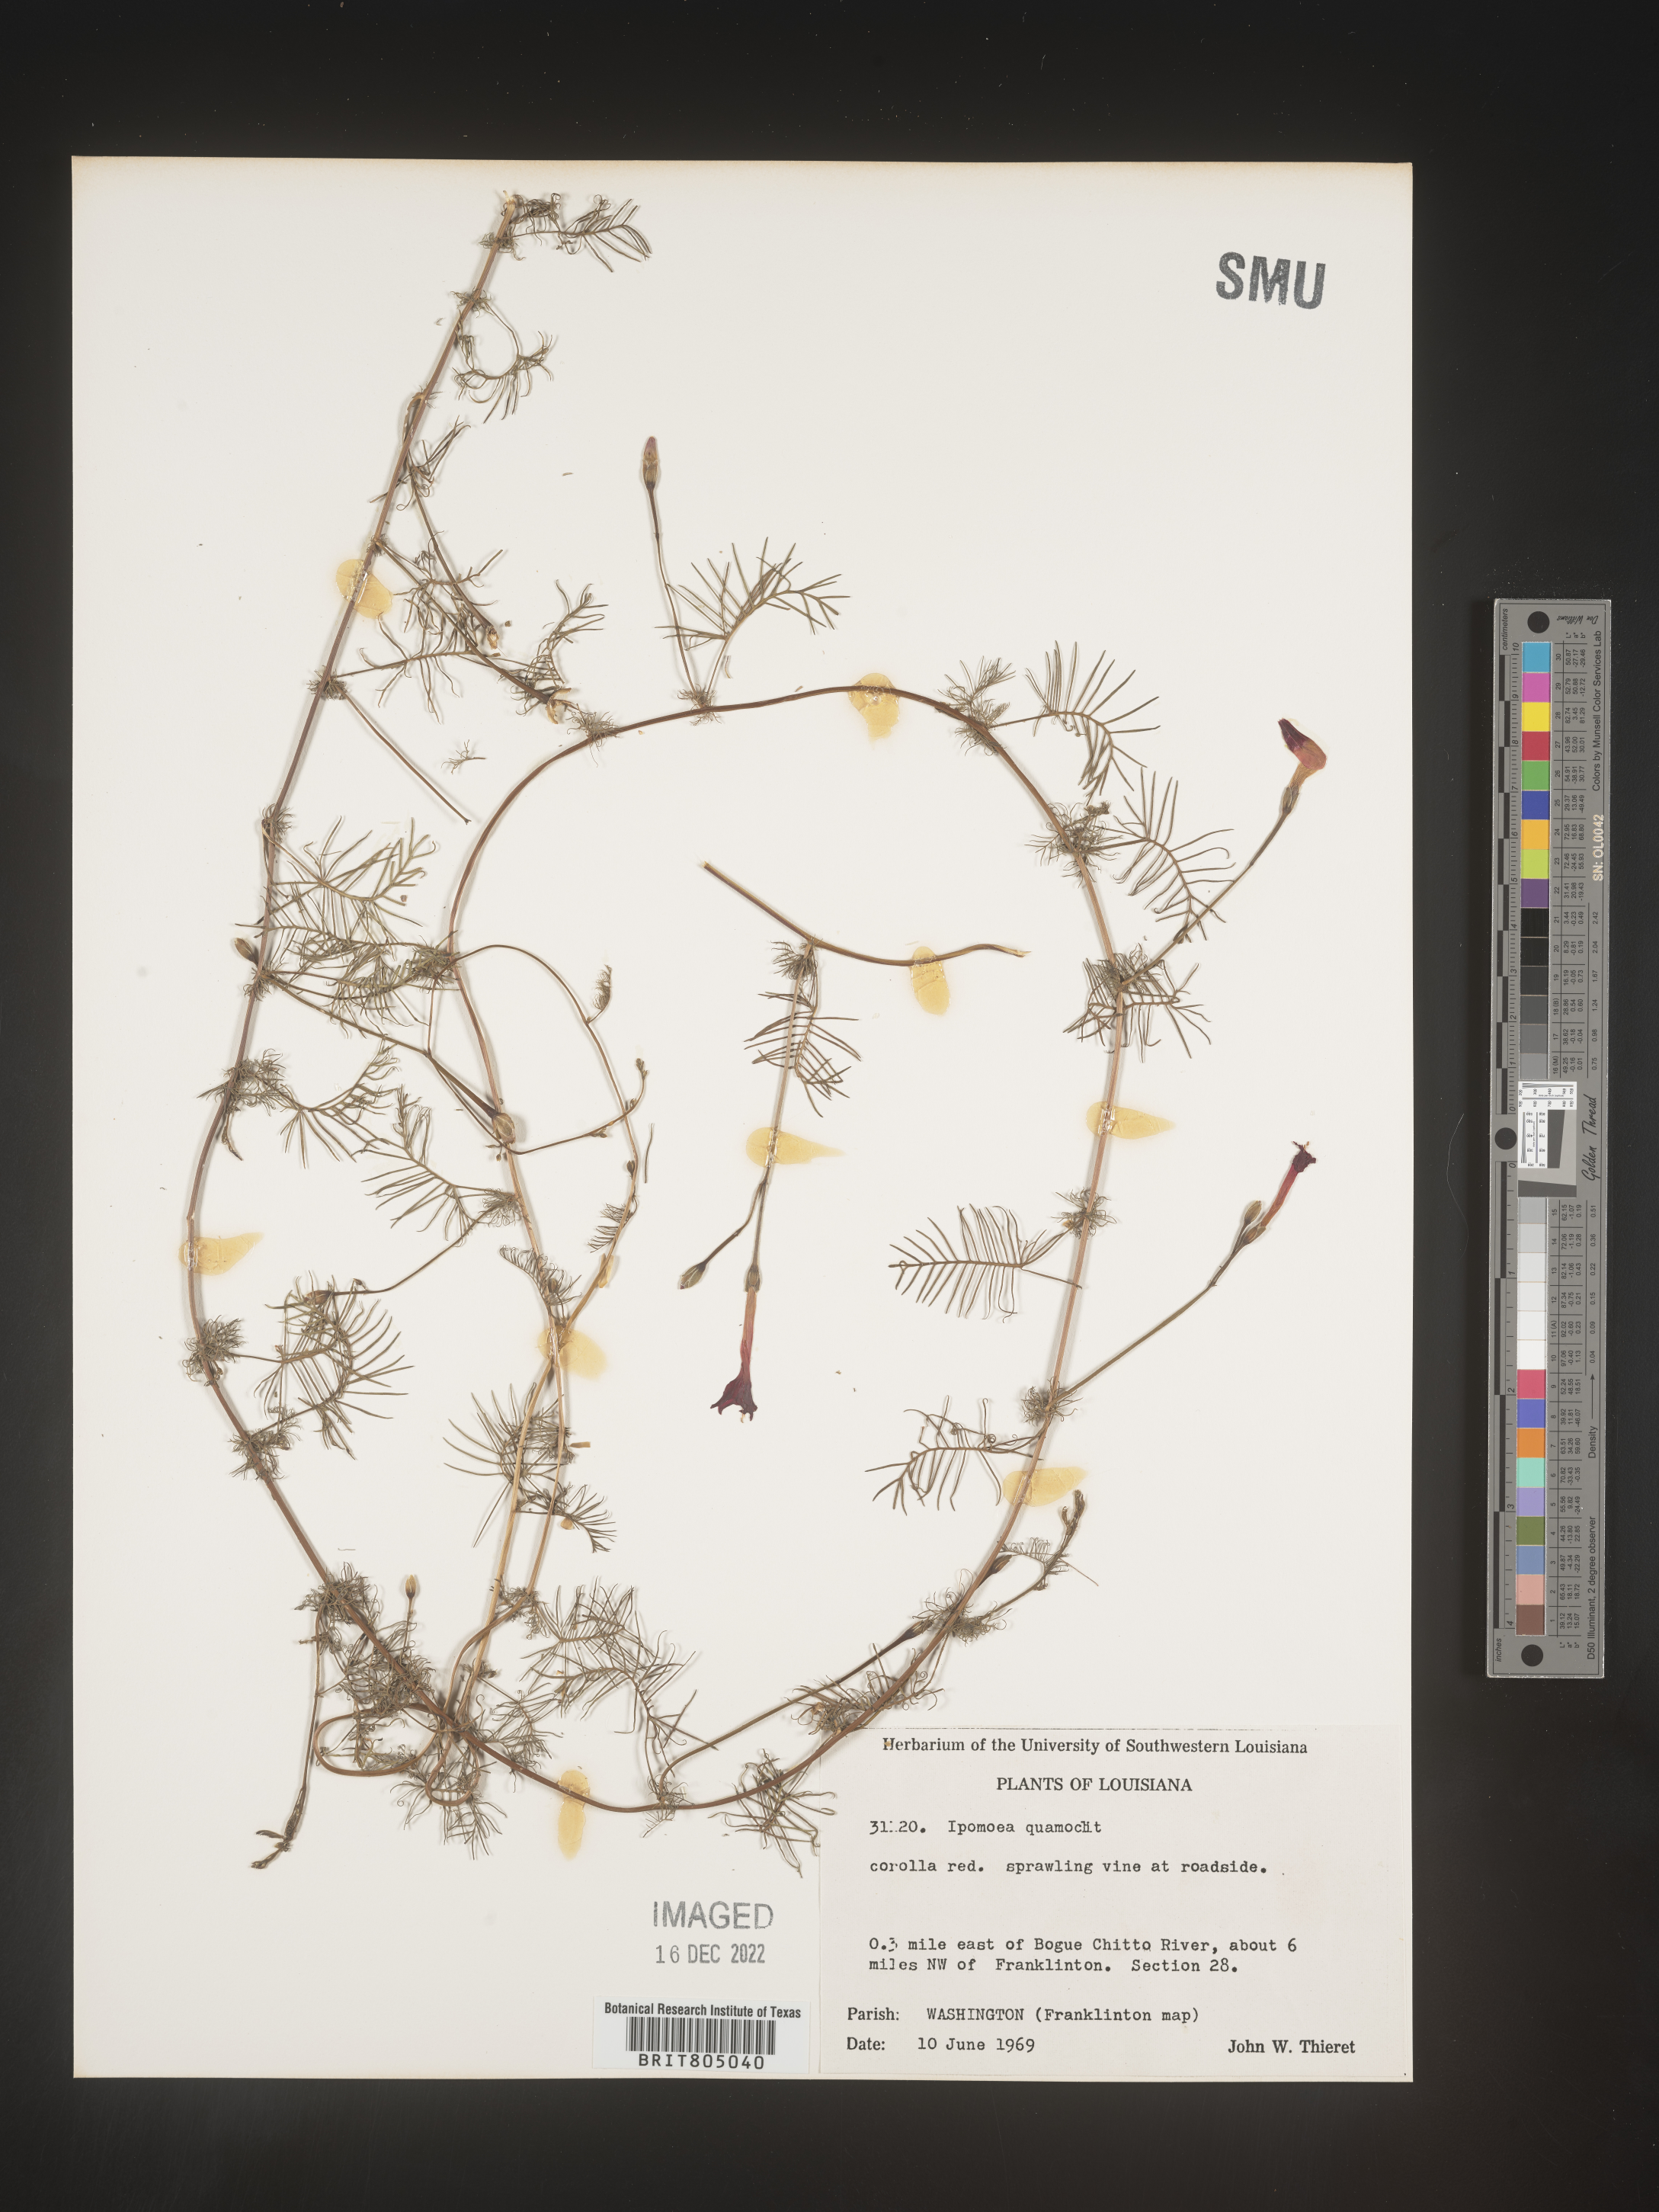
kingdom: Plantae
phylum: Tracheophyta
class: Magnoliopsida
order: Solanales
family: Convolvulaceae
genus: Ipomoea
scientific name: Ipomoea quamoclit
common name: Cypress vine
